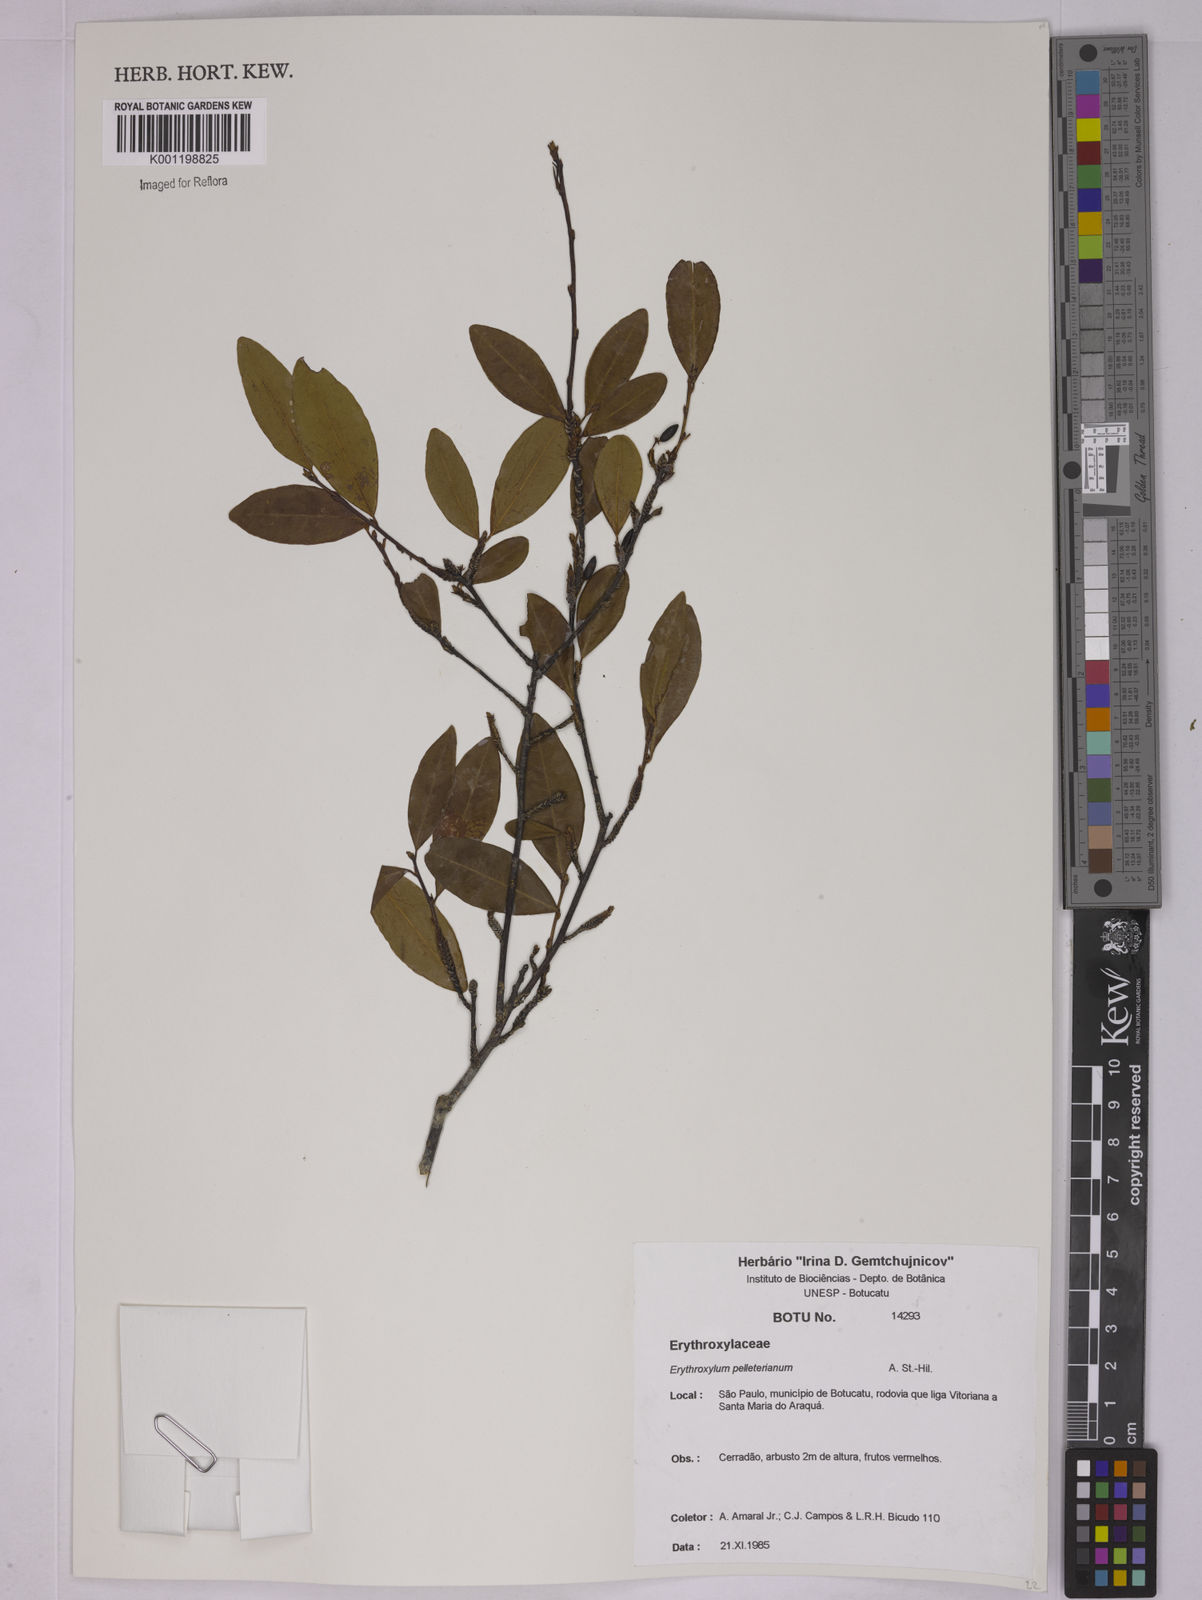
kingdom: Plantae
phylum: Tracheophyta
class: Magnoliopsida
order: Malpighiales
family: Erythroxylaceae
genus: Erythroxylum
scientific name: Erythroxylum pelleterianum
